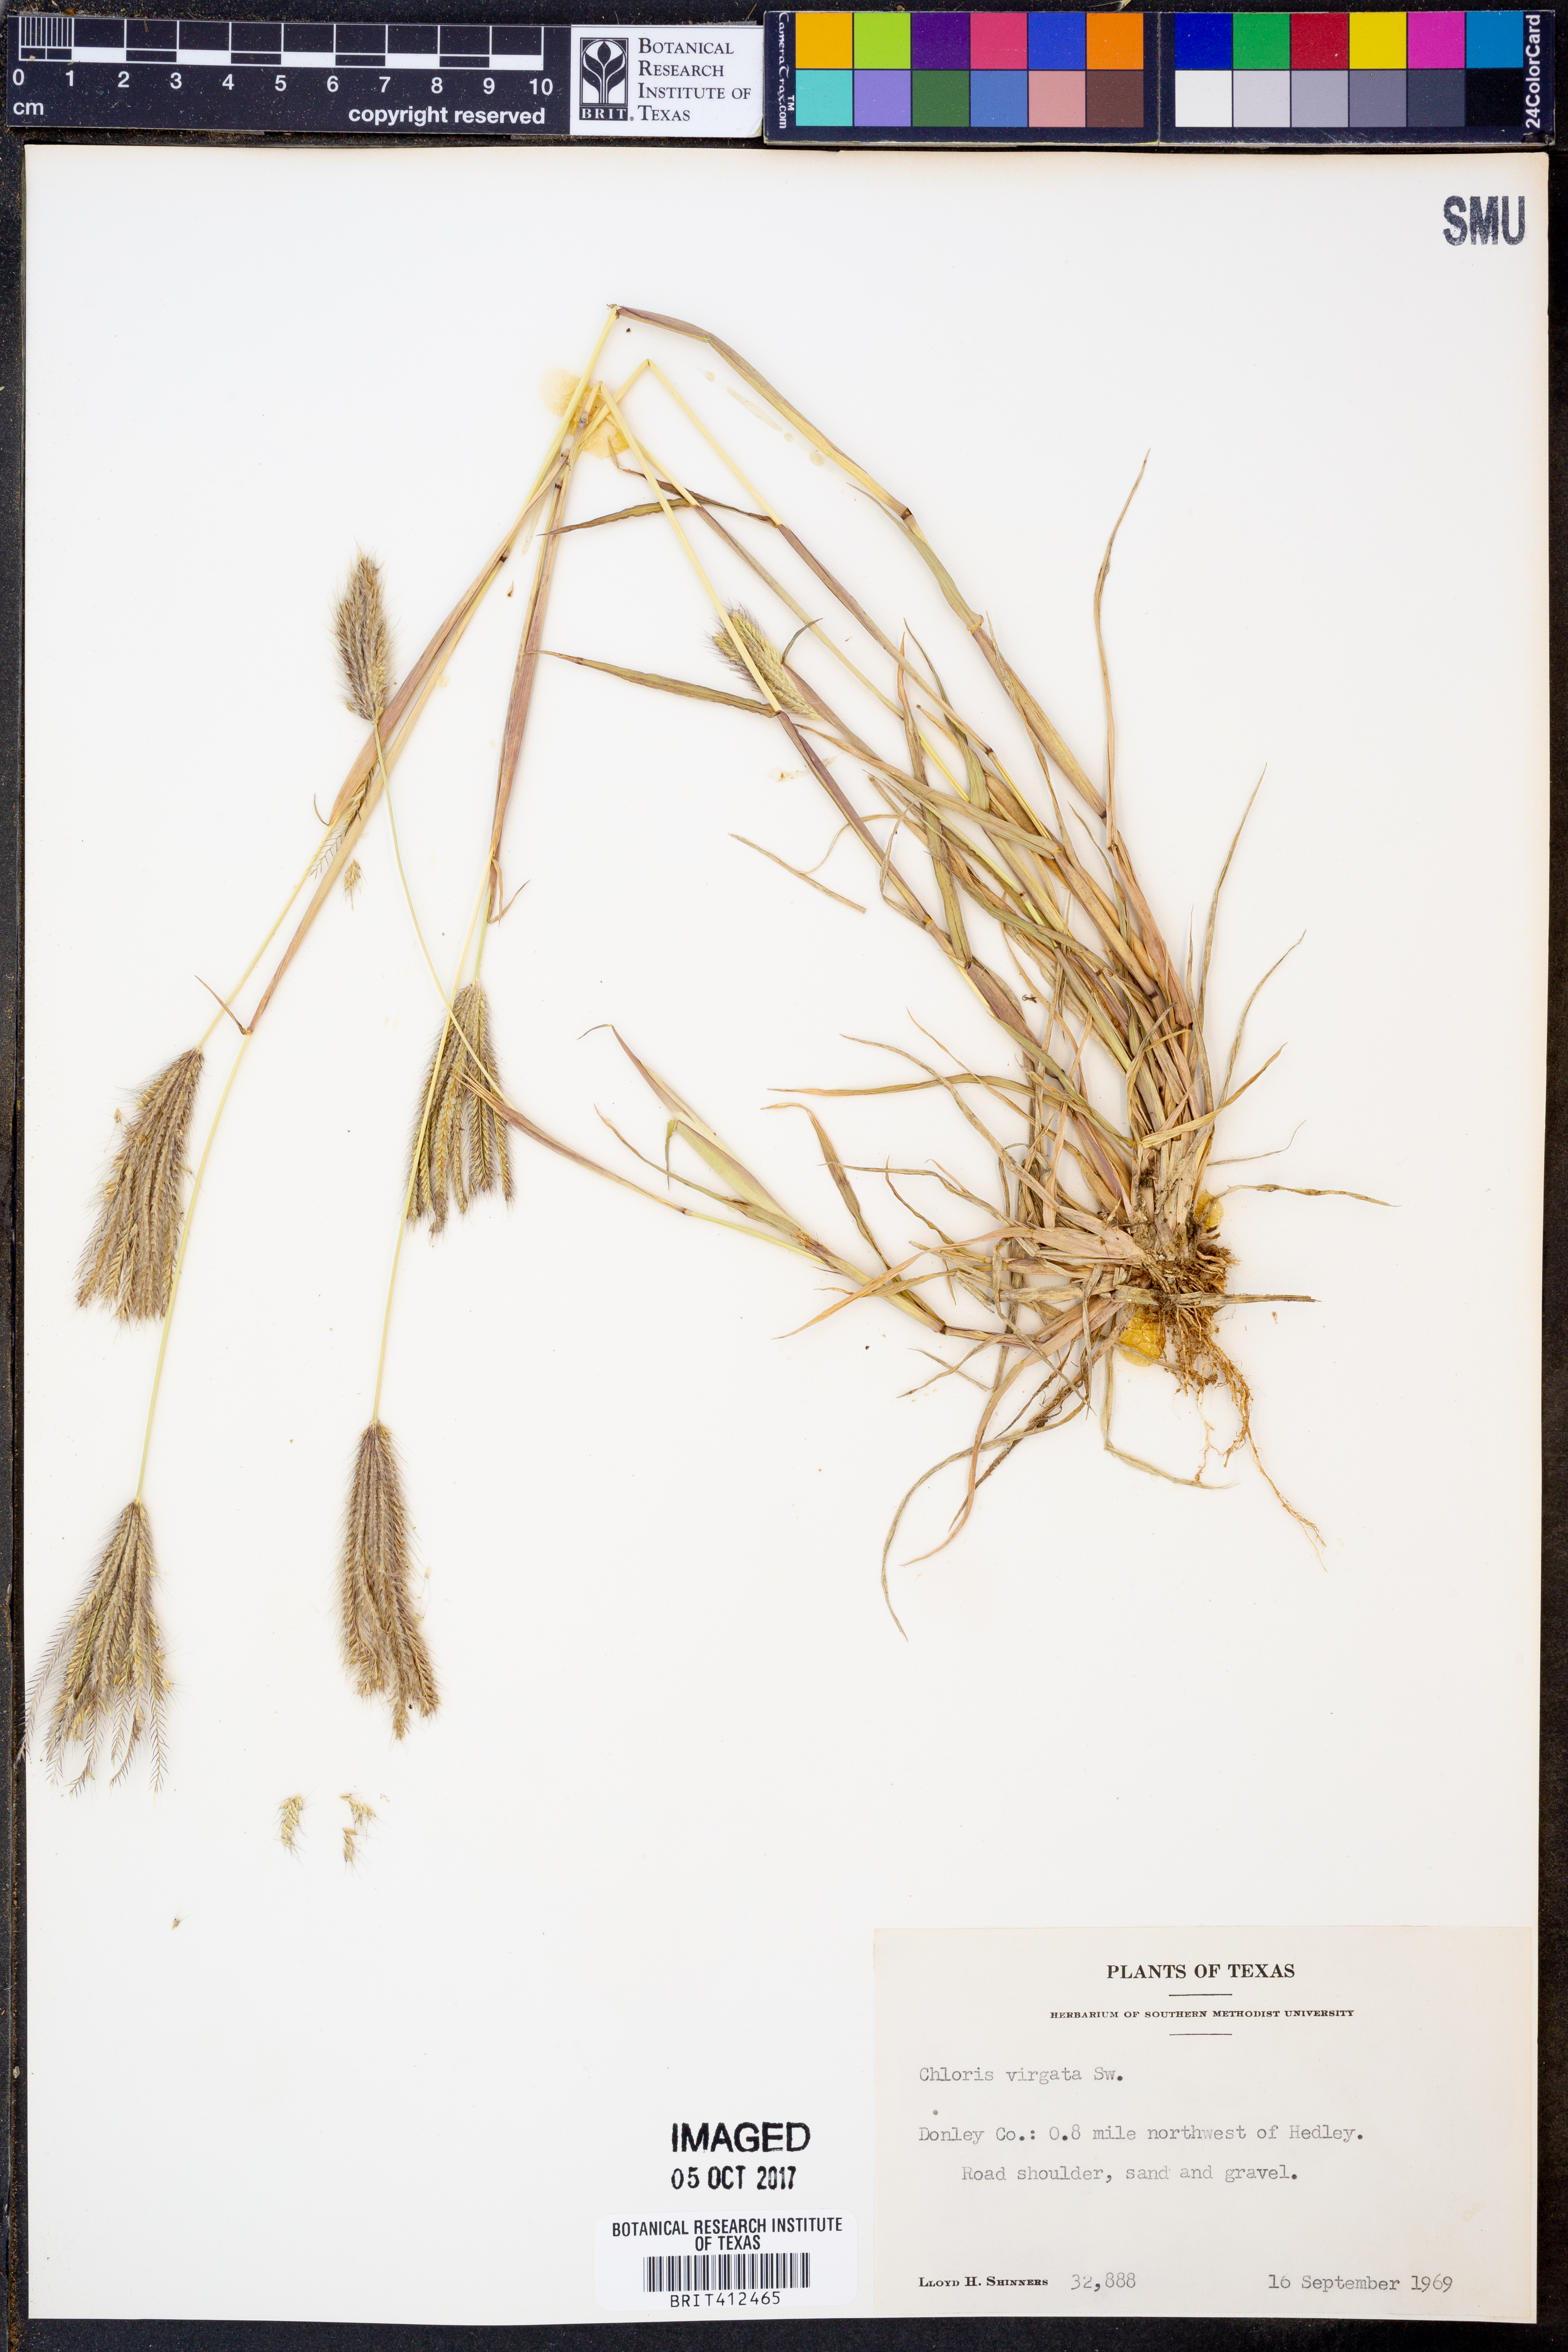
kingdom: Plantae
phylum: Tracheophyta
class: Liliopsida
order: Poales
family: Poaceae
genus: Chloris
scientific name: Chloris virgata
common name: Feathery rhodes-grass
